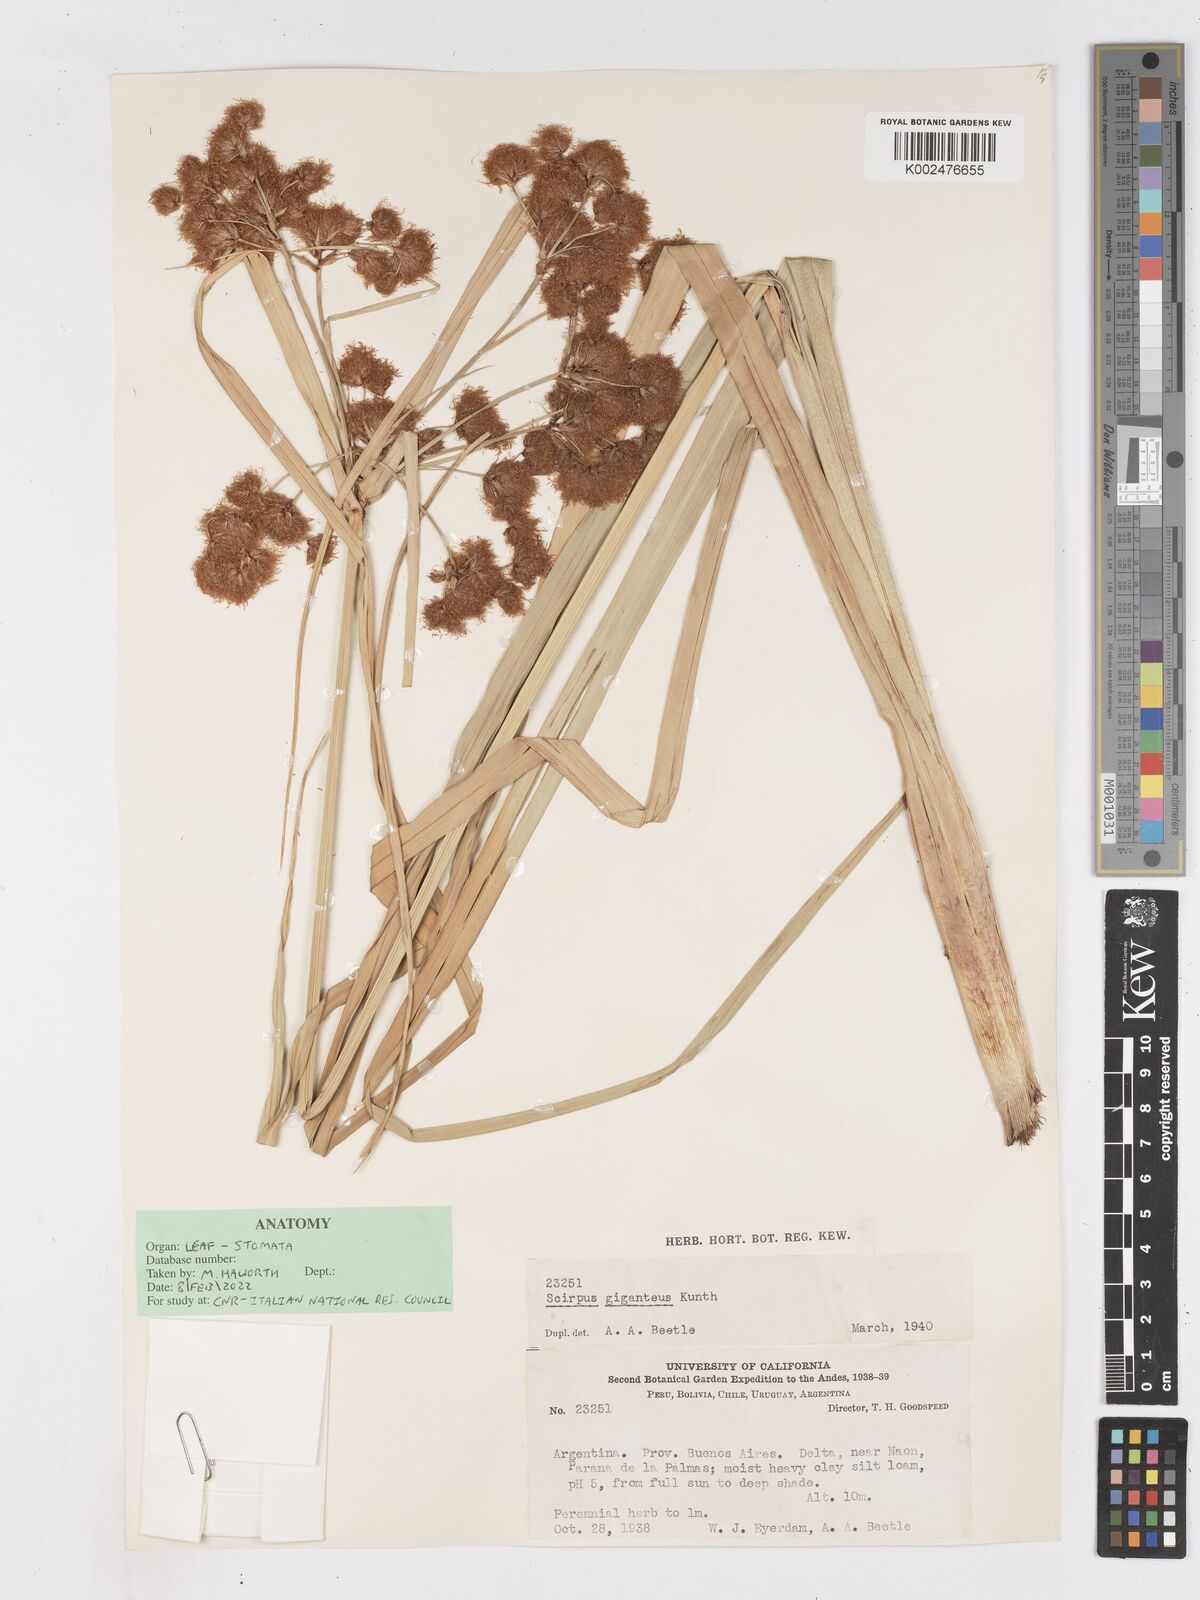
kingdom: Plantae
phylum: Tracheophyta
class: Liliopsida
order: Poales
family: Cyperaceae
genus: Cyperus
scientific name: Cyperus byssaceus
